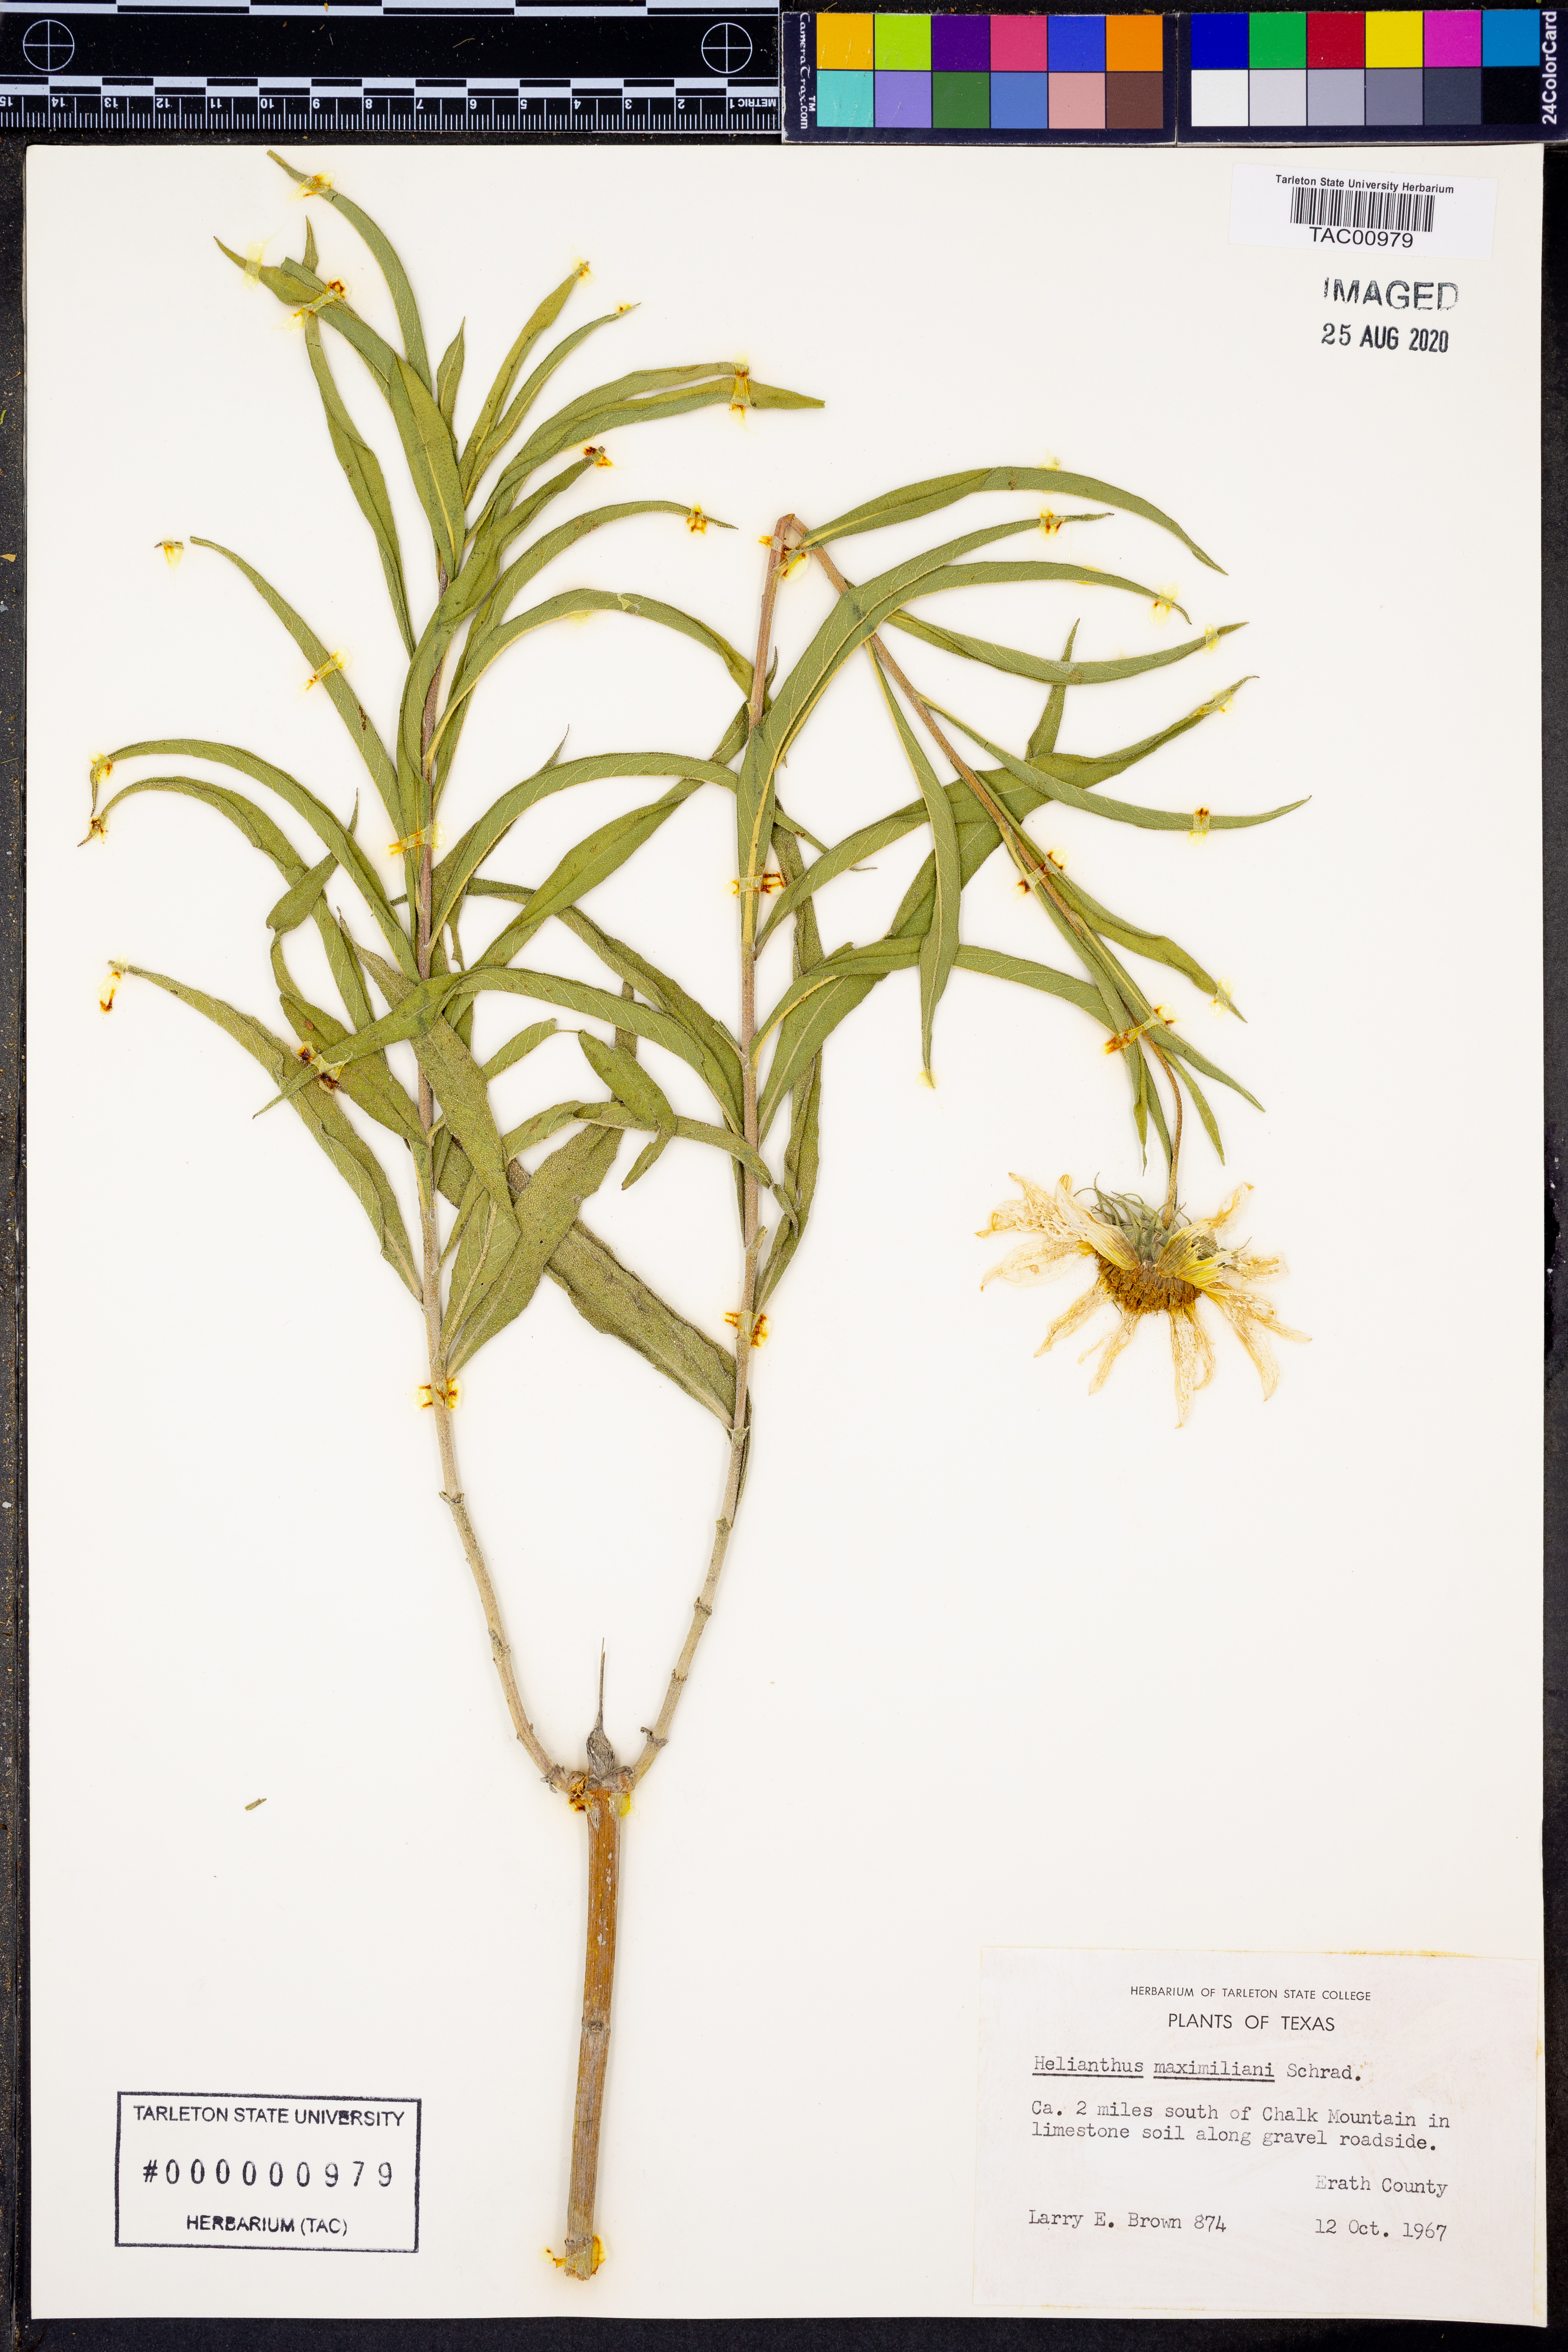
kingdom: Plantae
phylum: Tracheophyta
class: Magnoliopsida
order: Asterales
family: Asteraceae
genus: Helianthus
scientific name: Helianthus maximiliani
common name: Maximilian's sunflower
